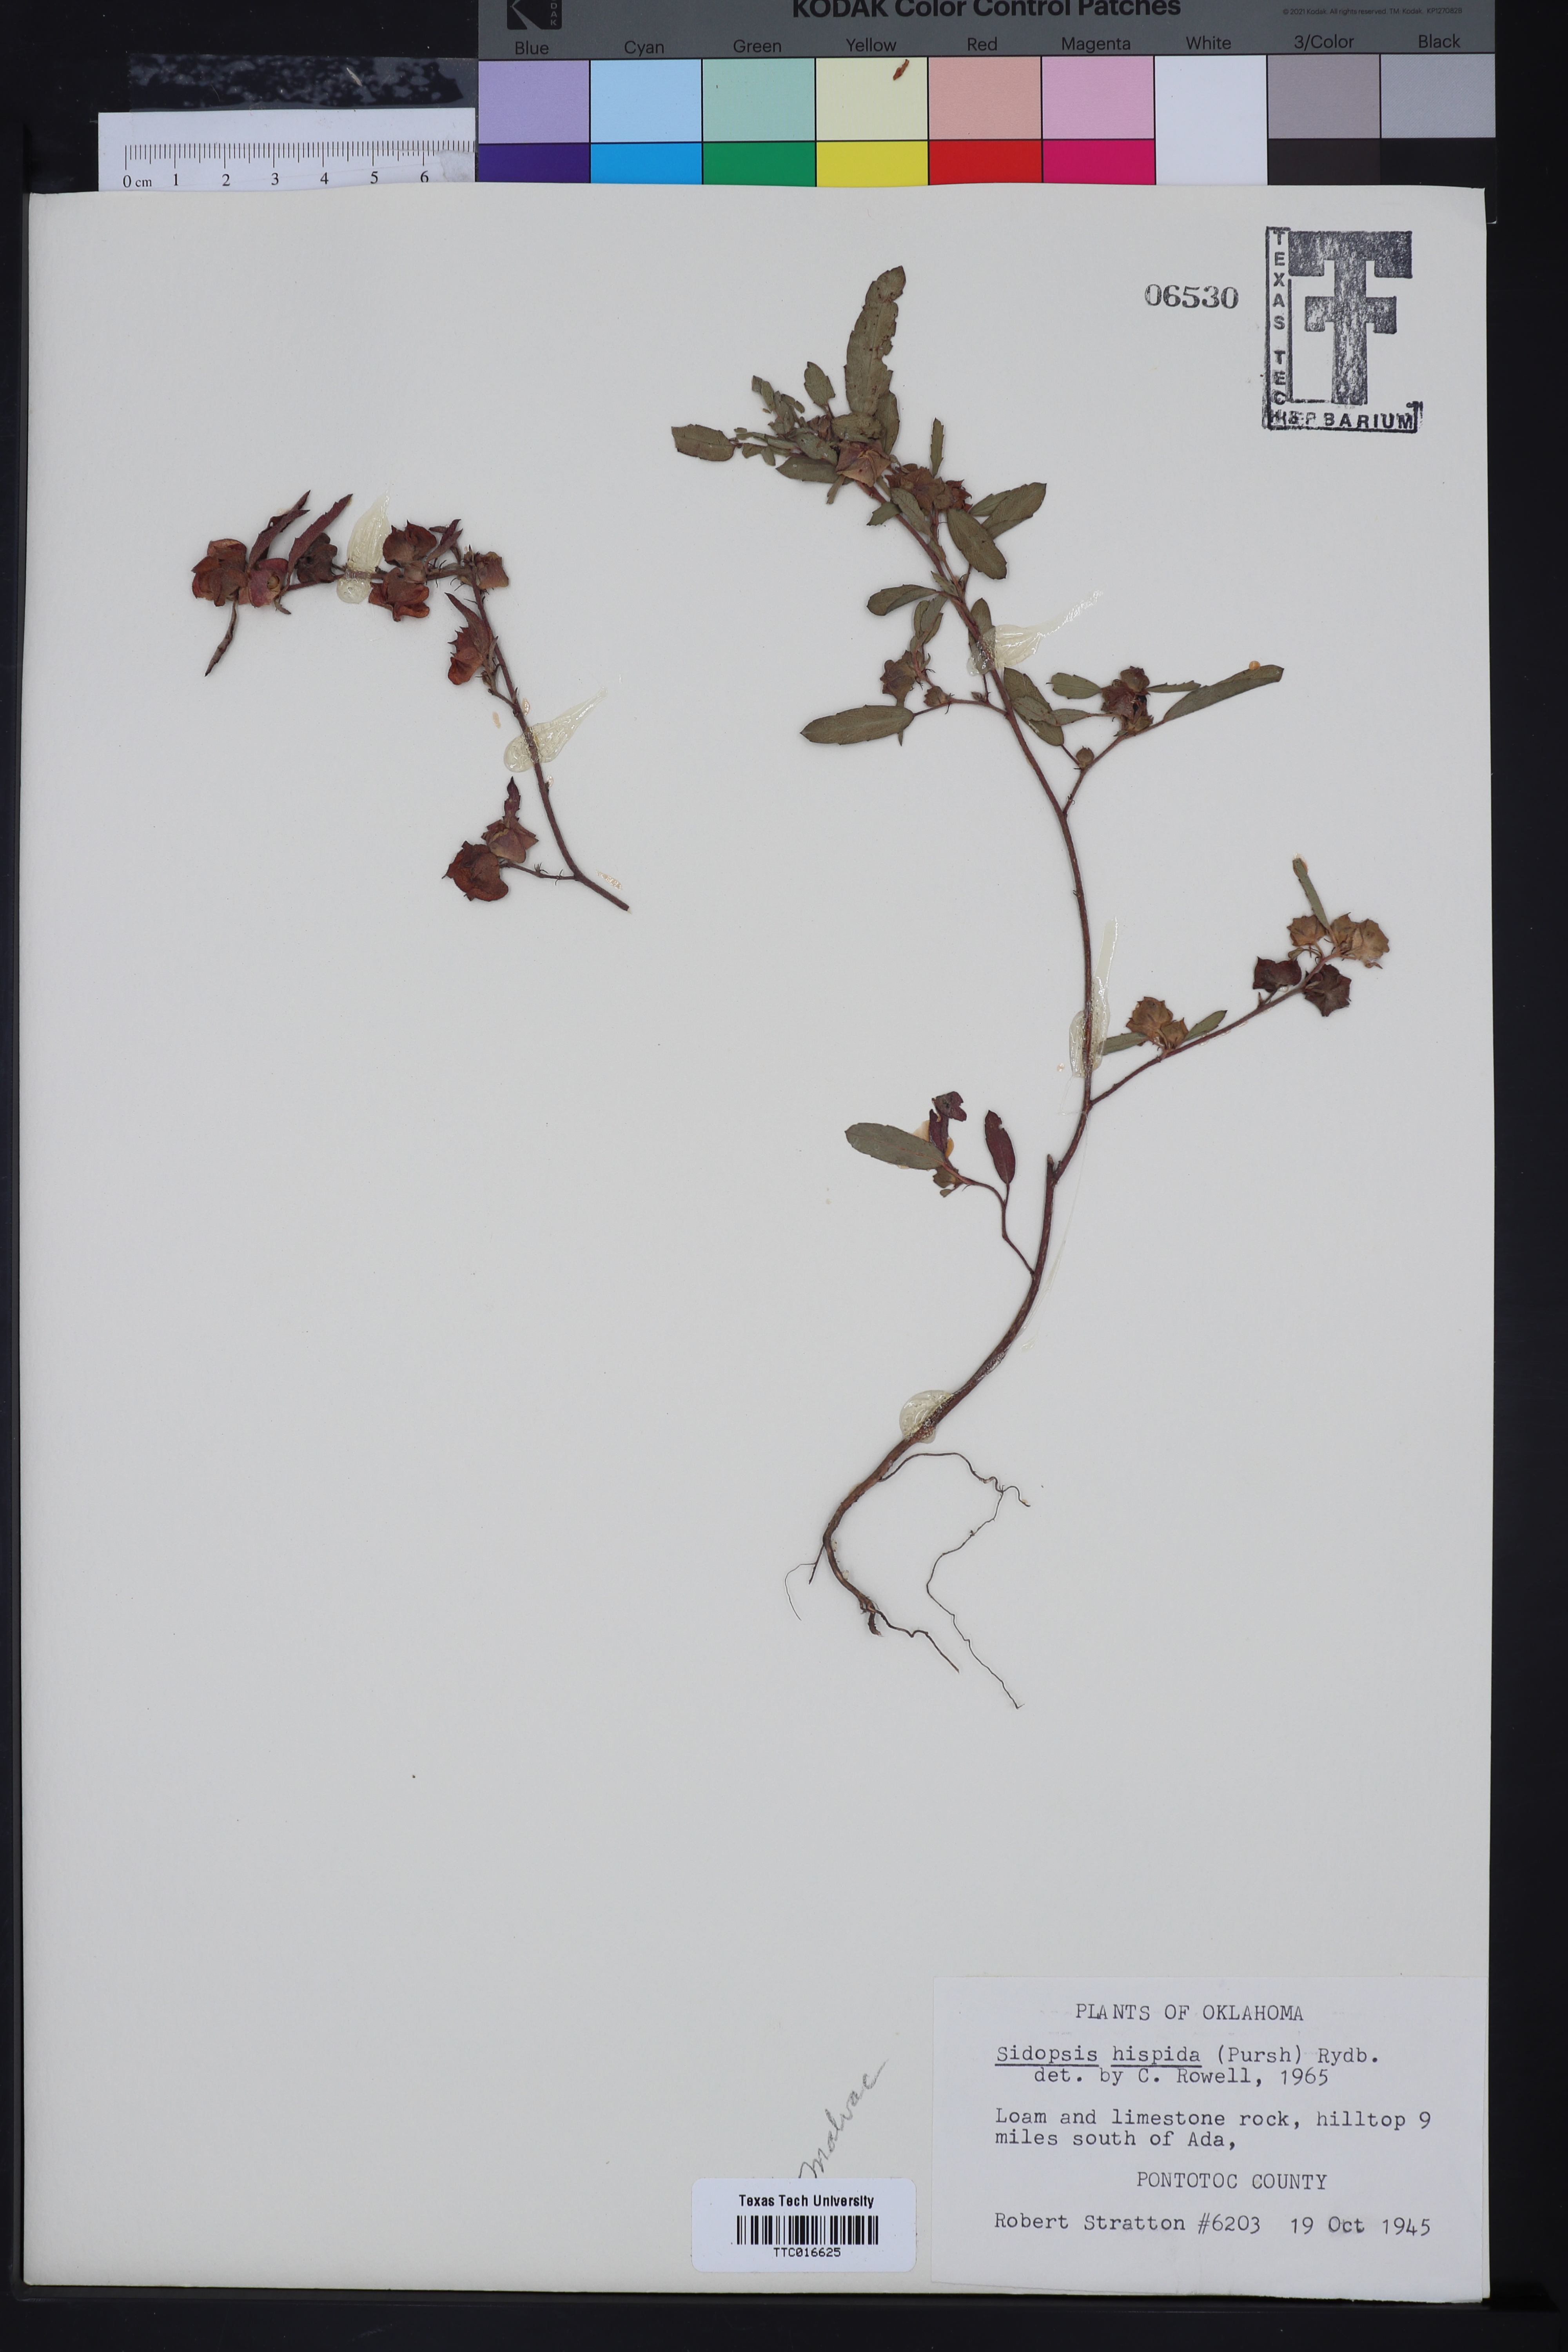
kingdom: Plantae
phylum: Tracheophyta
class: Magnoliopsida
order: Malvales
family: Malvaceae
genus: Malvastrum
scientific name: Malvastrum hispidum
